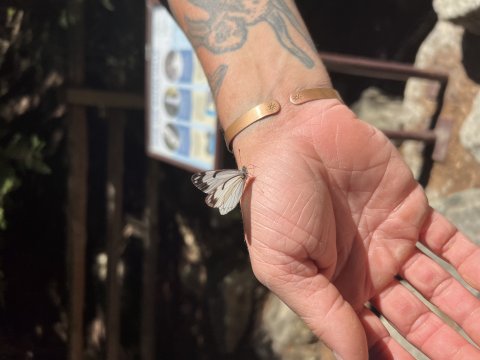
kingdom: Animalia
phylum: Arthropoda
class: Insecta
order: Lepidoptera
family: Pieridae
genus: Neophasia
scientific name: Neophasia menapia
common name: Pine White
